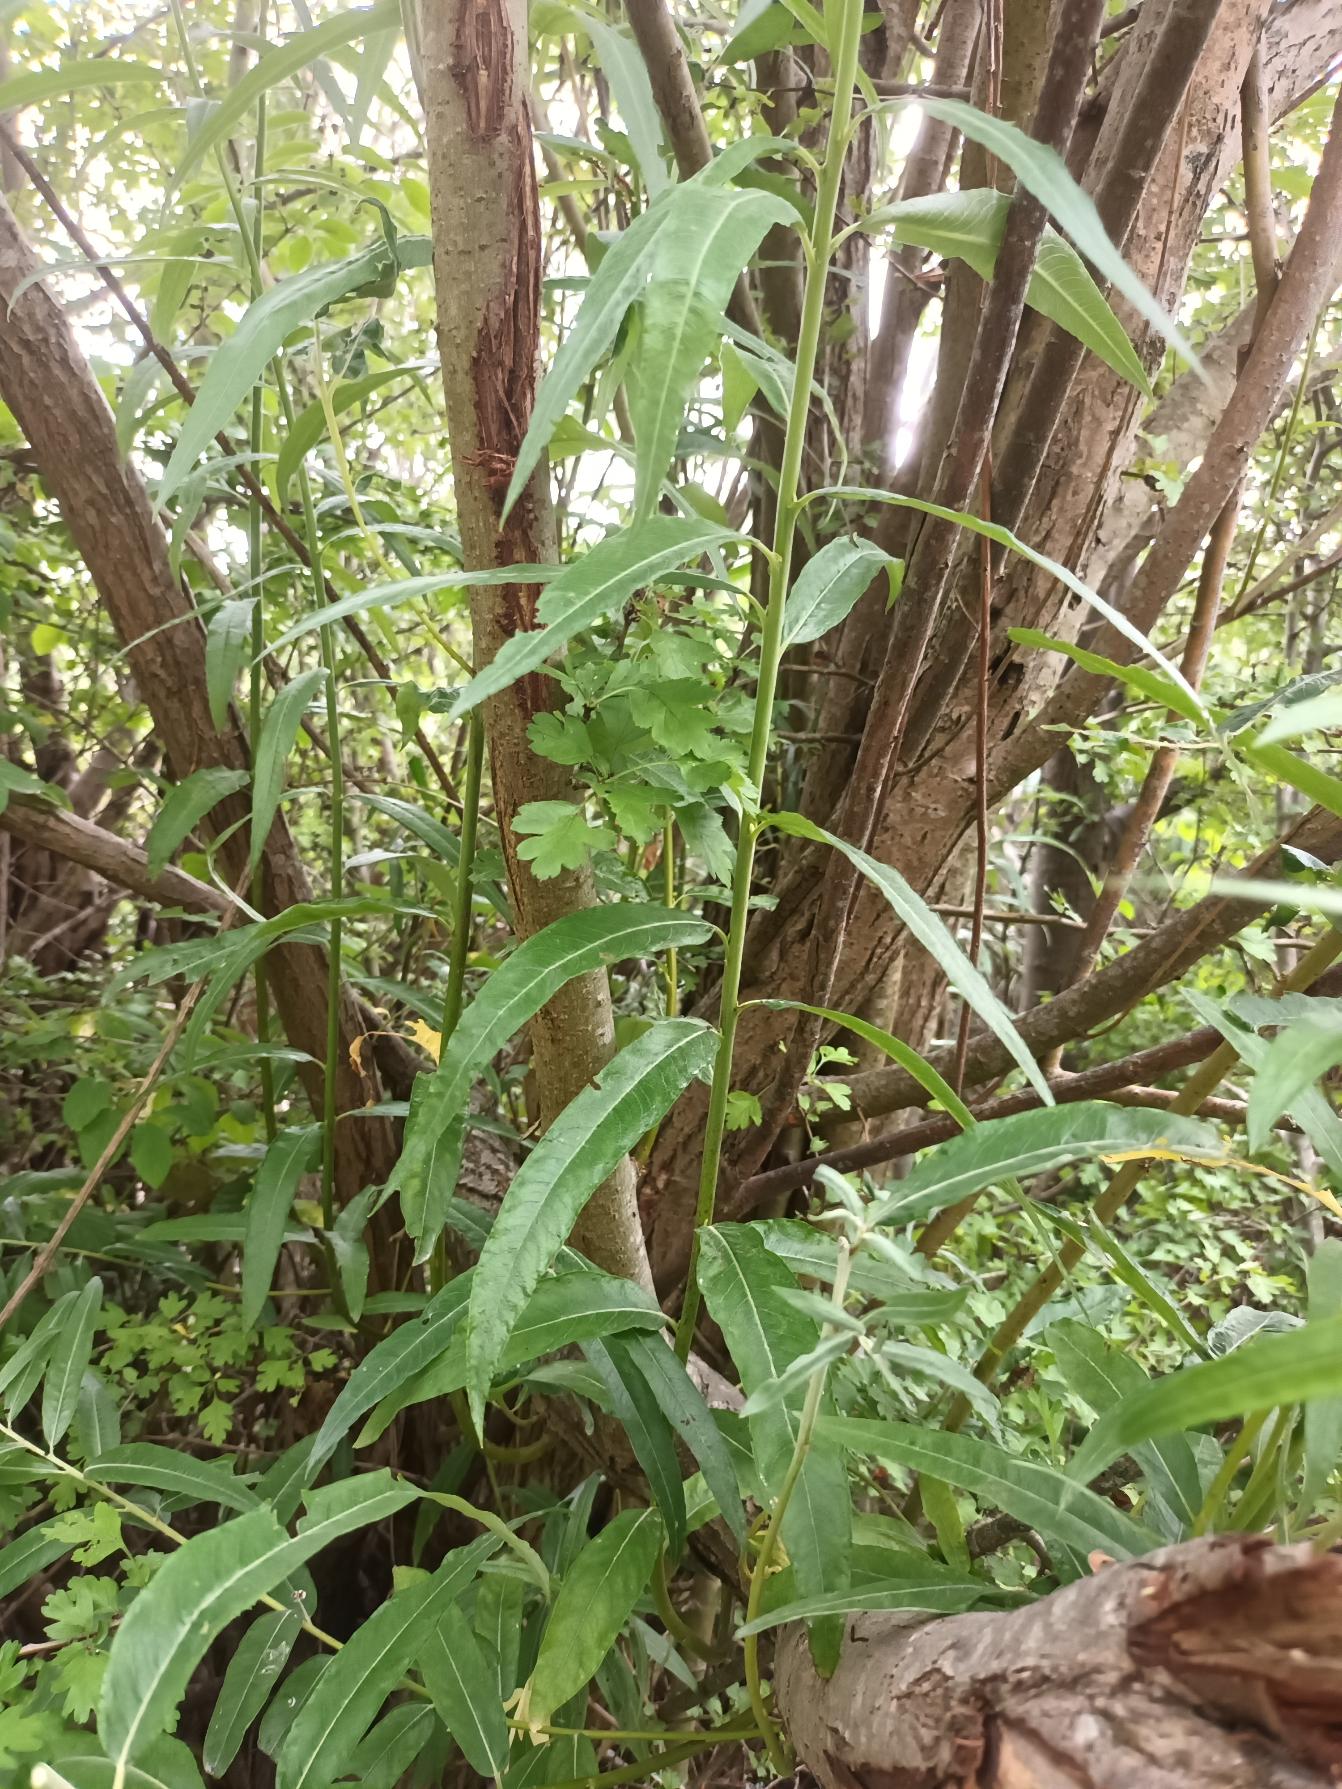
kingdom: Plantae
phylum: Tracheophyta
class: Magnoliopsida
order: Malpighiales
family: Salicaceae
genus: Salix
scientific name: Salix stipularis
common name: Langbladet pil
